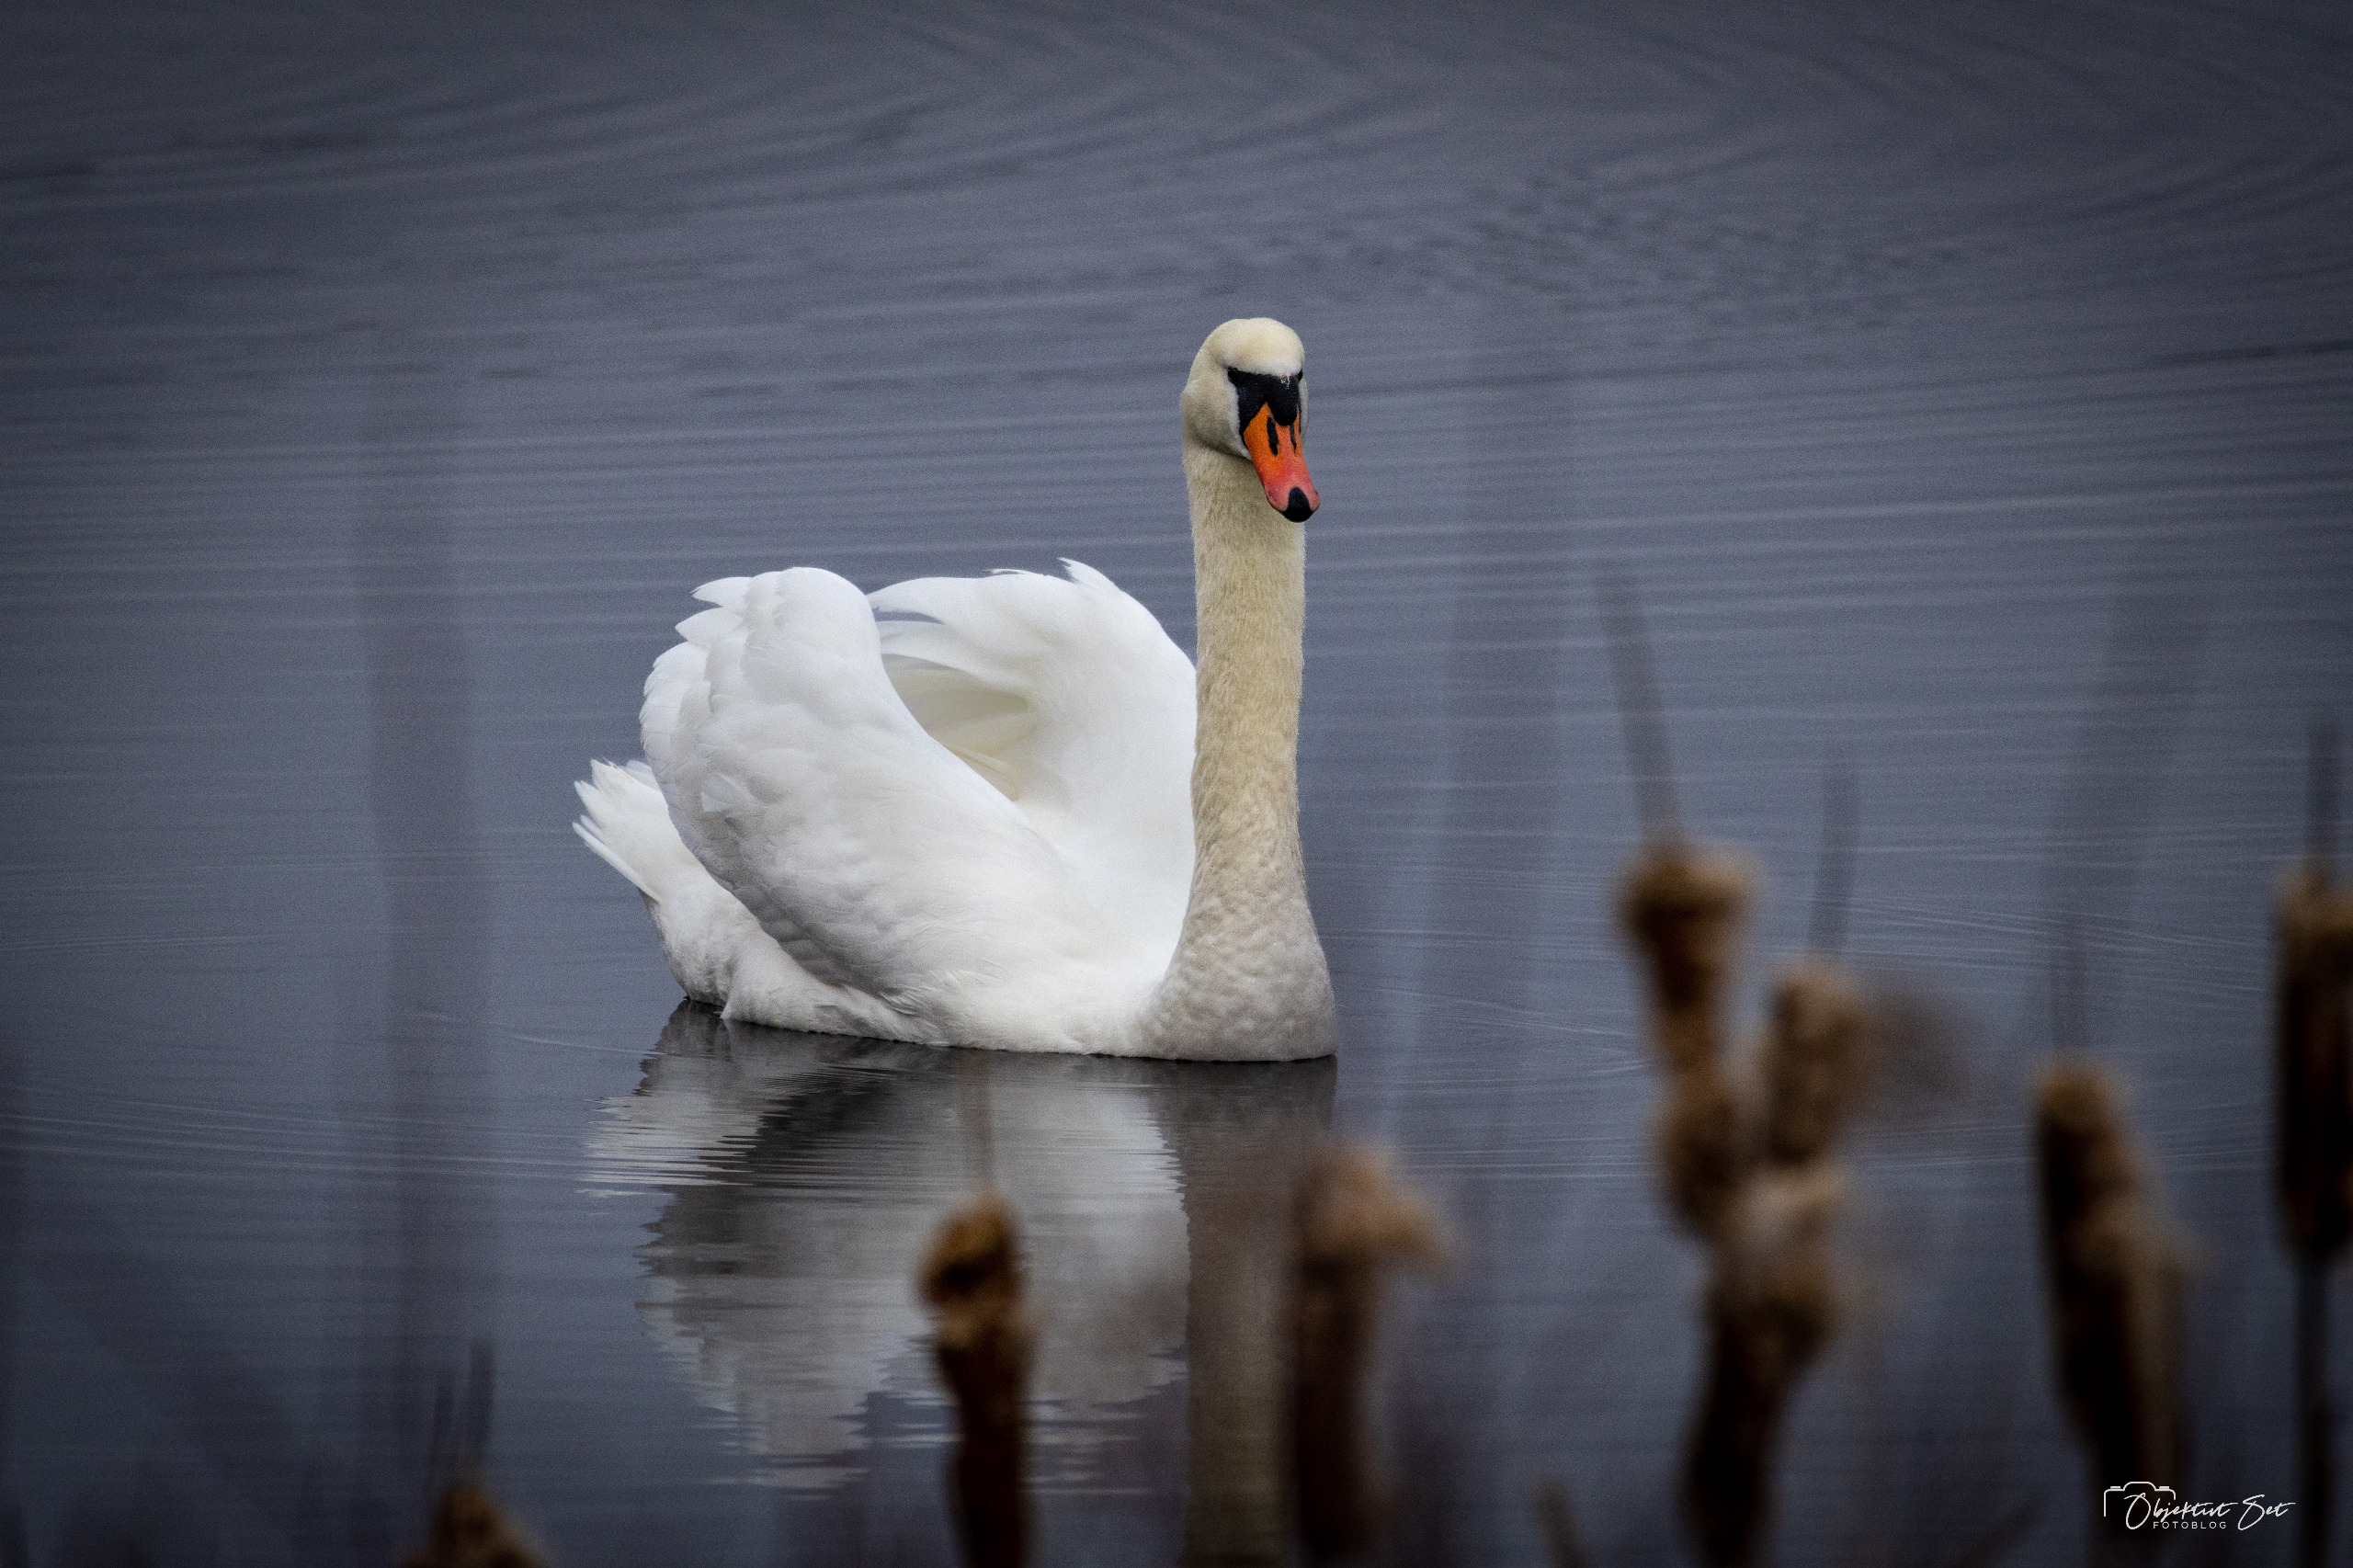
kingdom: Animalia
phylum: Chordata
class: Aves
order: Anseriformes
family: Anatidae
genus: Cygnus
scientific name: Cygnus olor
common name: Knopsvane
